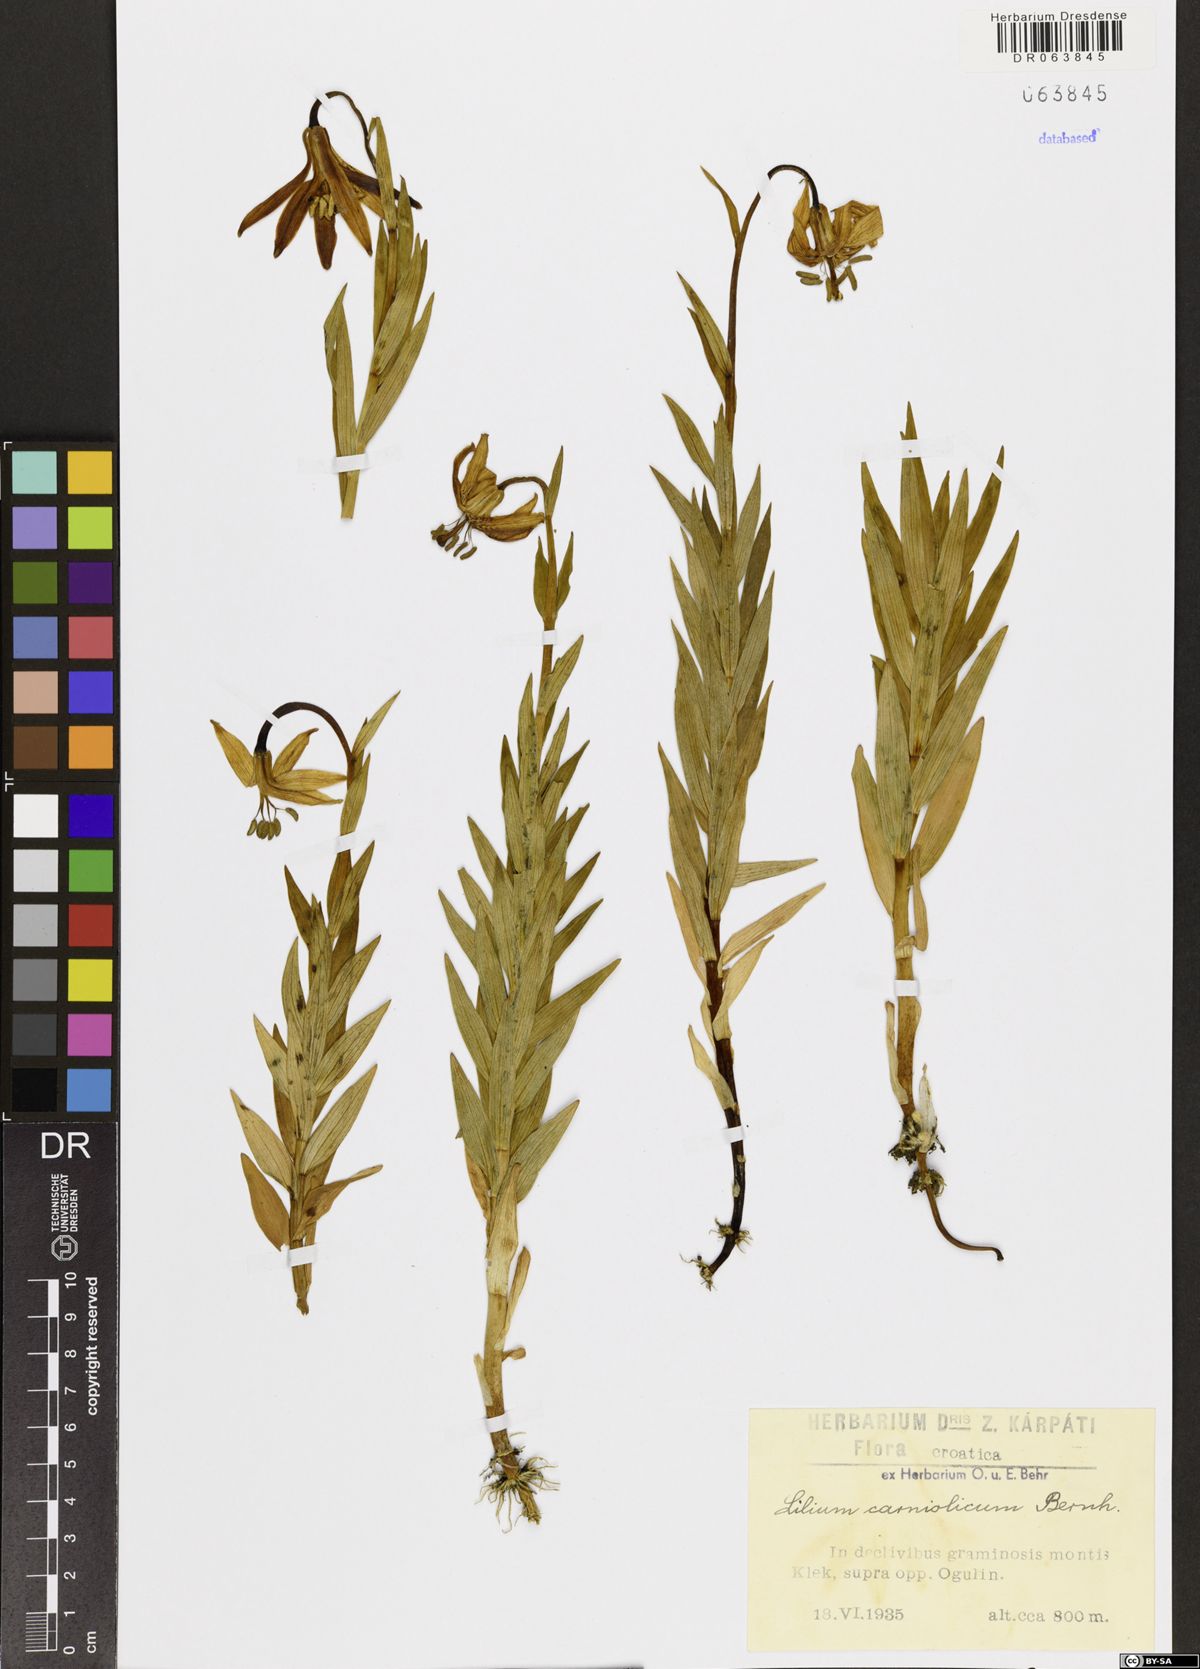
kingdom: Plantae
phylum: Tracheophyta
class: Liliopsida
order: Liliales
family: Liliaceae
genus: Lilium
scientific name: Lilium carniolicum
